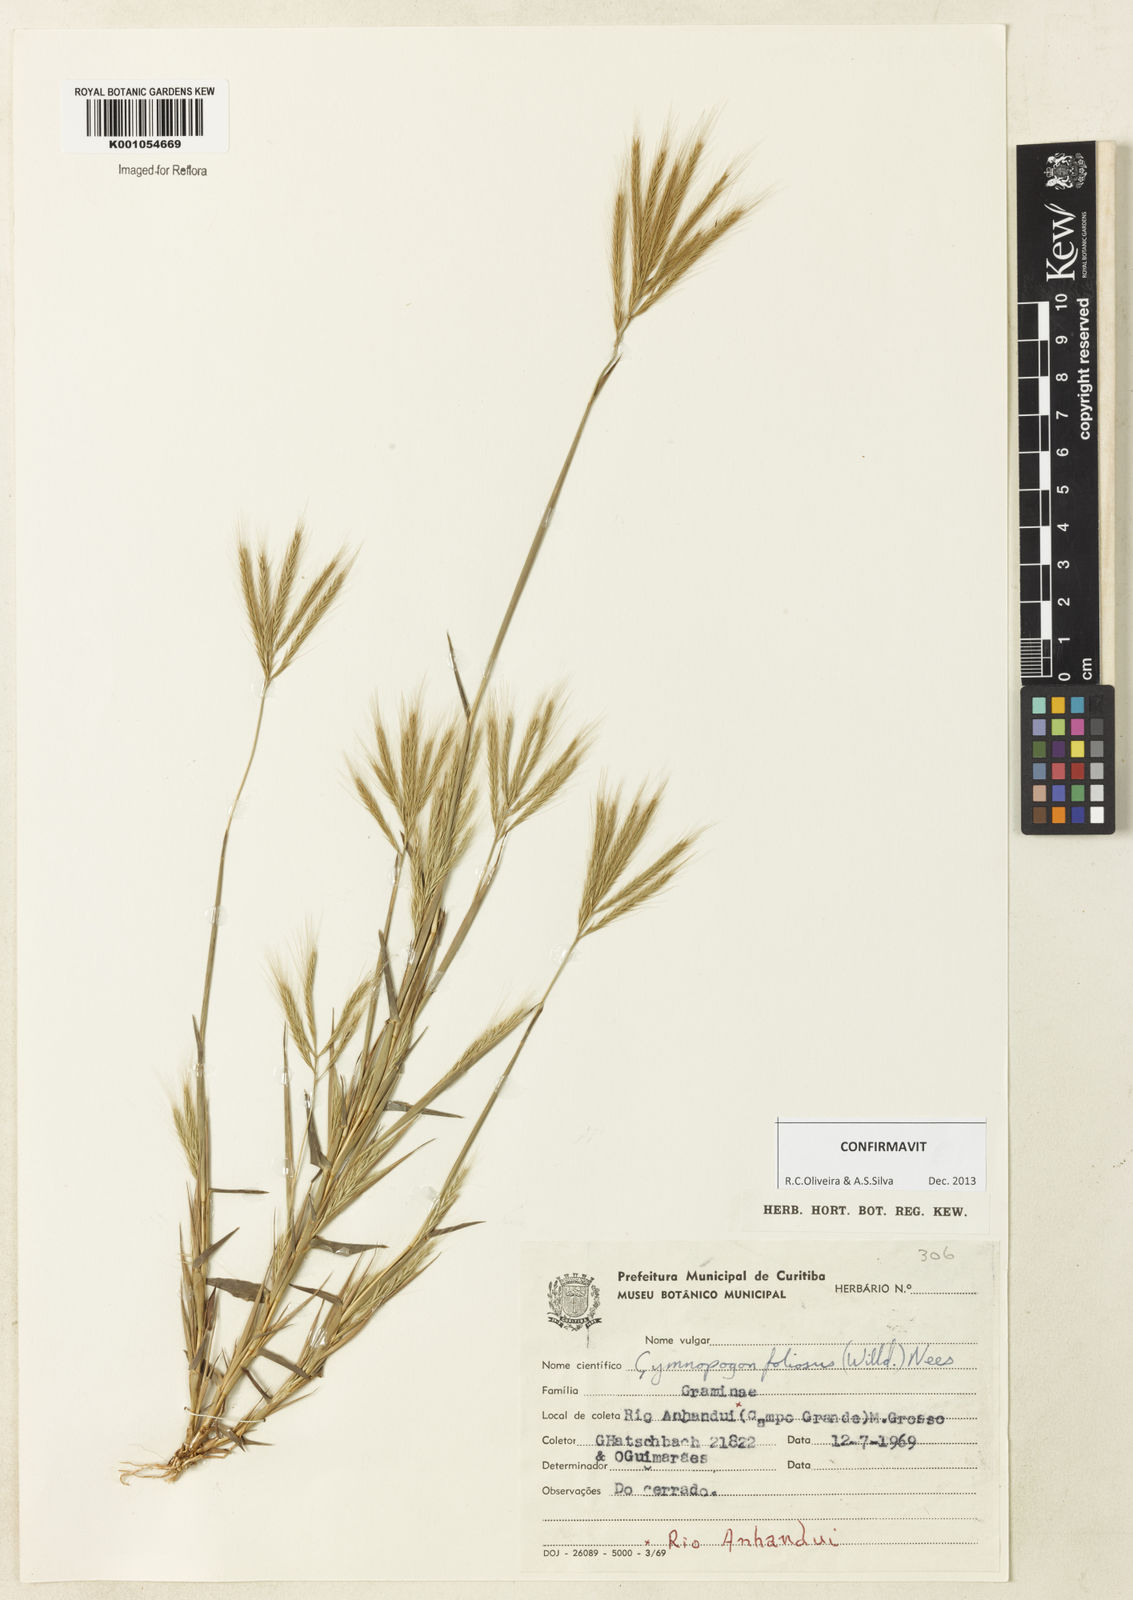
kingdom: Plantae
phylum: Tracheophyta
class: Liliopsida
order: Poales
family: Poaceae
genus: Gymnopogon
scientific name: Gymnopogon foliosus
